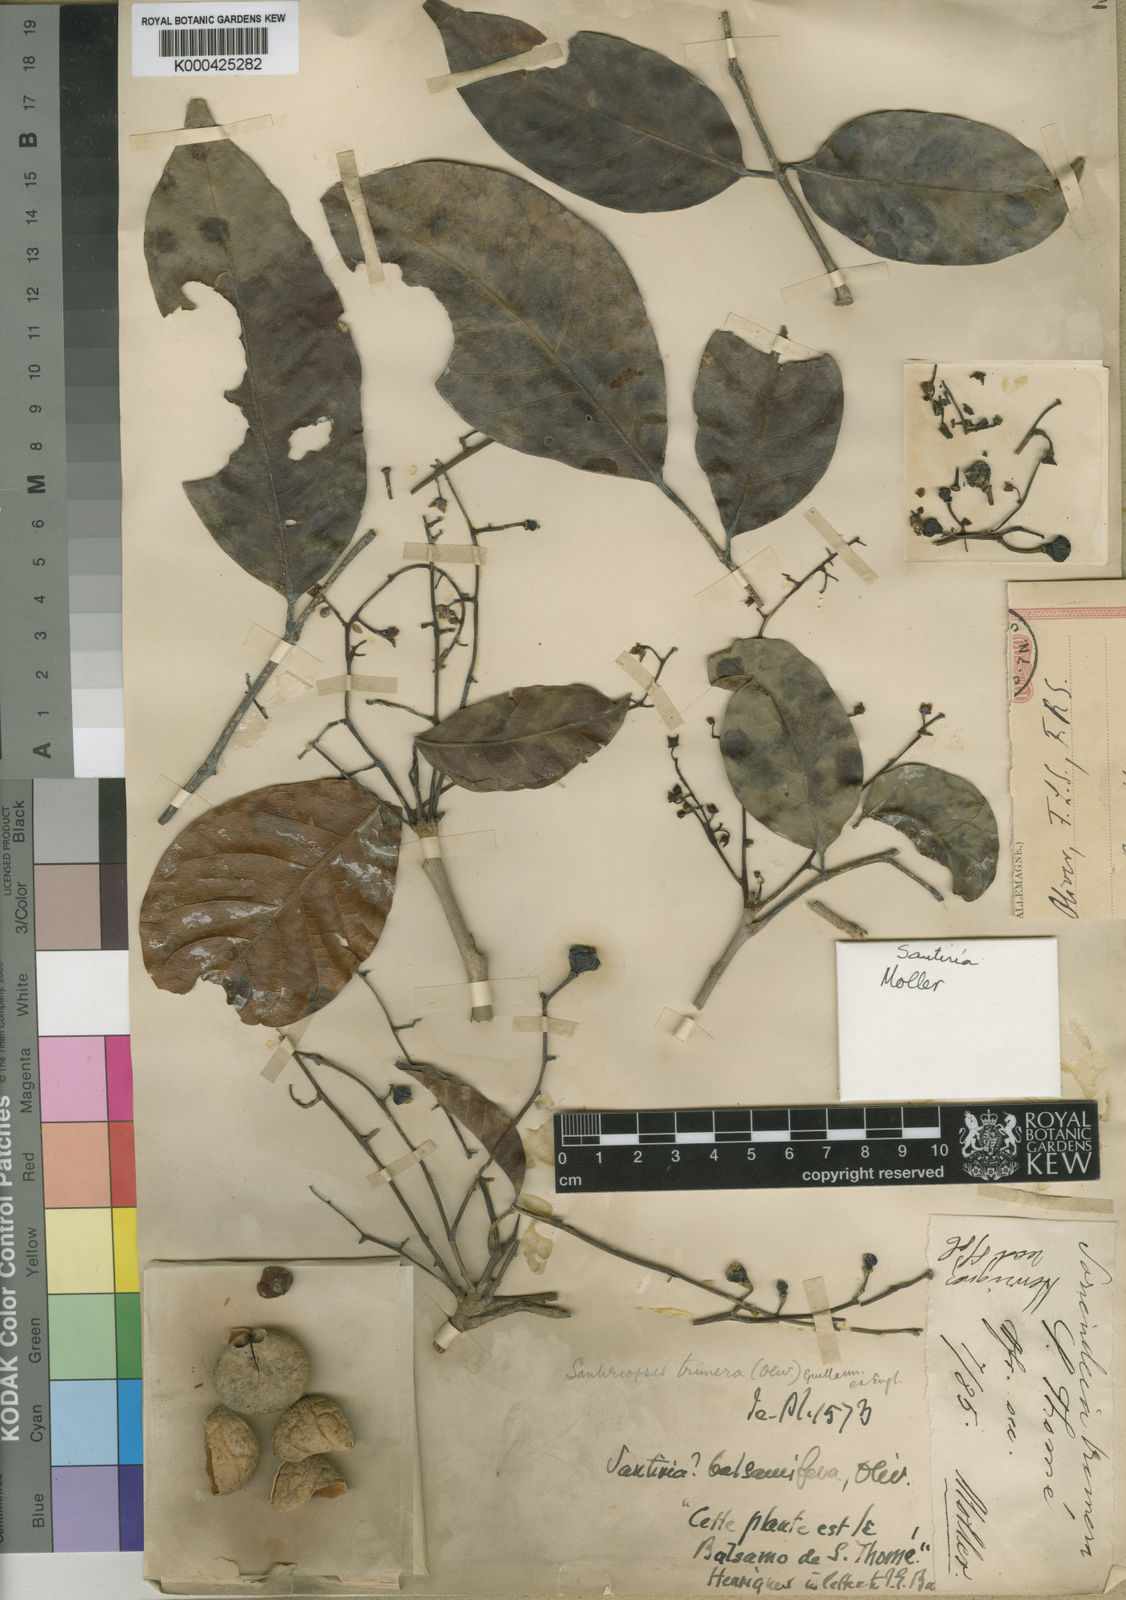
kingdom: Plantae
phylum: Tracheophyta
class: Magnoliopsida
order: Sapindales
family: Burseraceae
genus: Santiria
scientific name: Santiria
